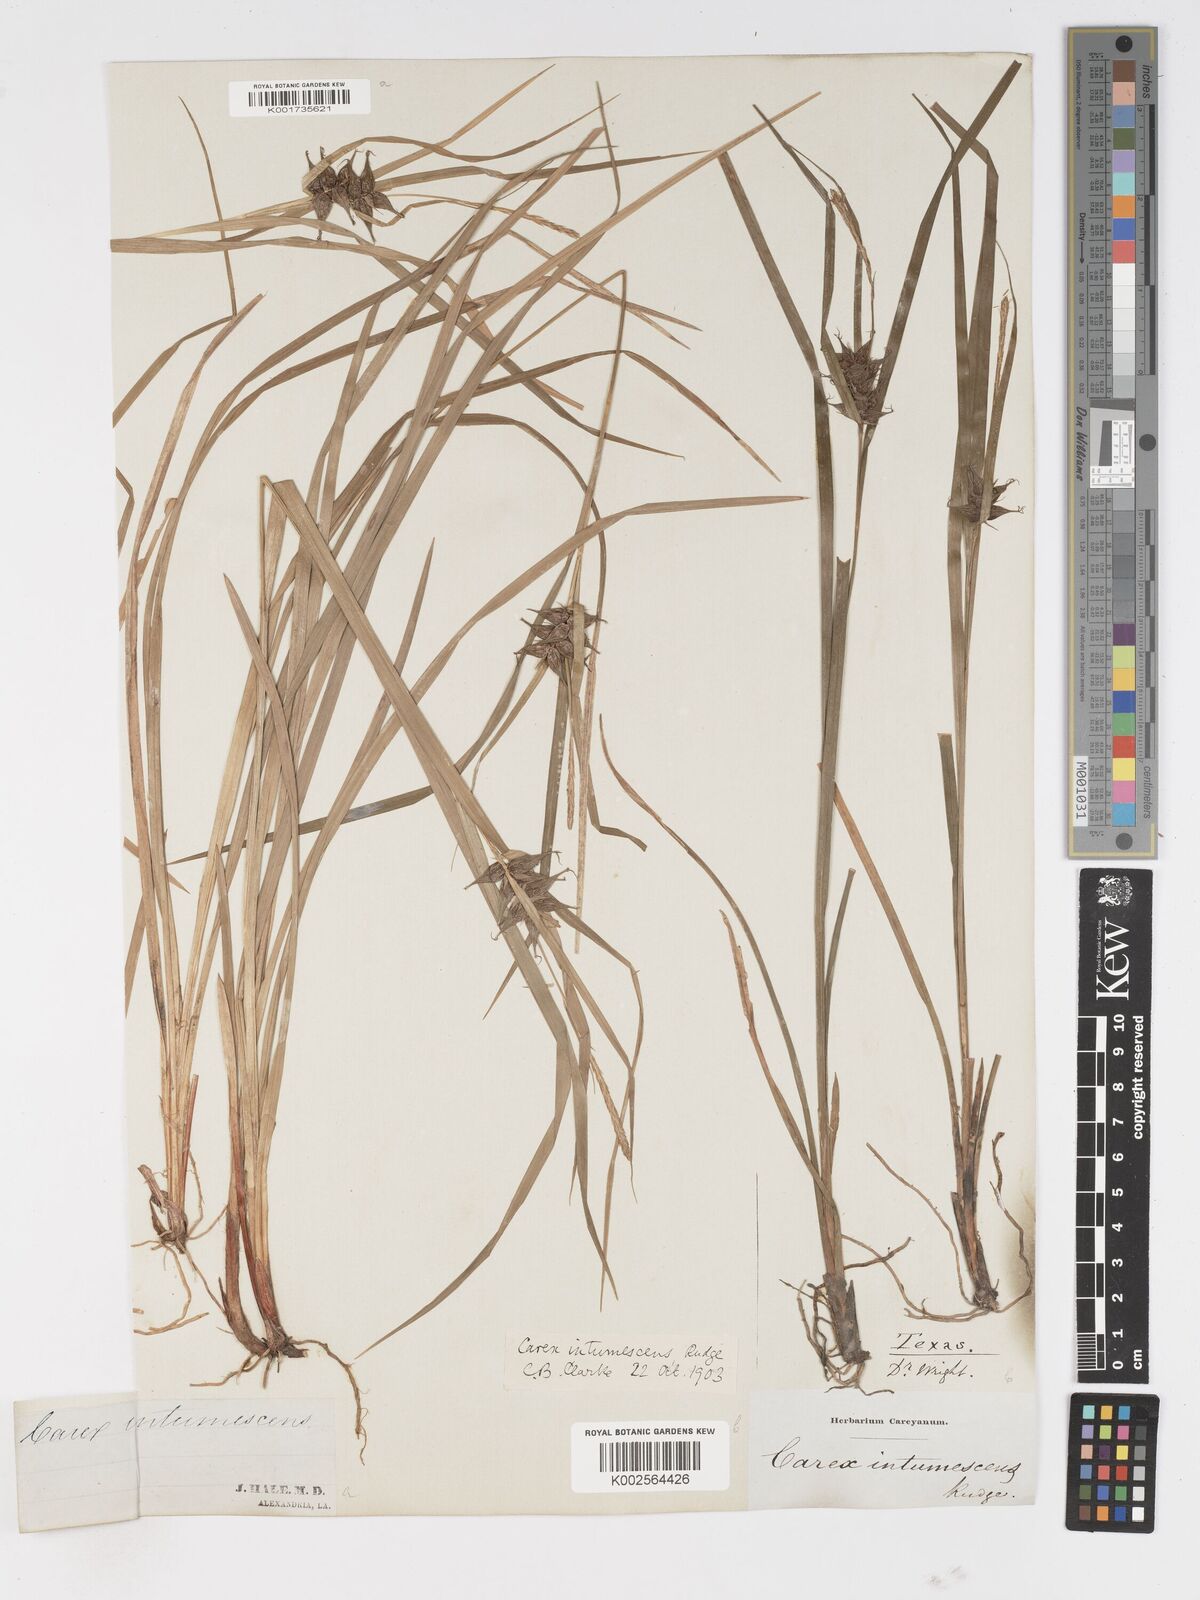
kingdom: Plantae
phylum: Tracheophyta
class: Liliopsida
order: Poales
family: Cyperaceae
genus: Carex
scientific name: Carex intumescens
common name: Greater bladder sedge
